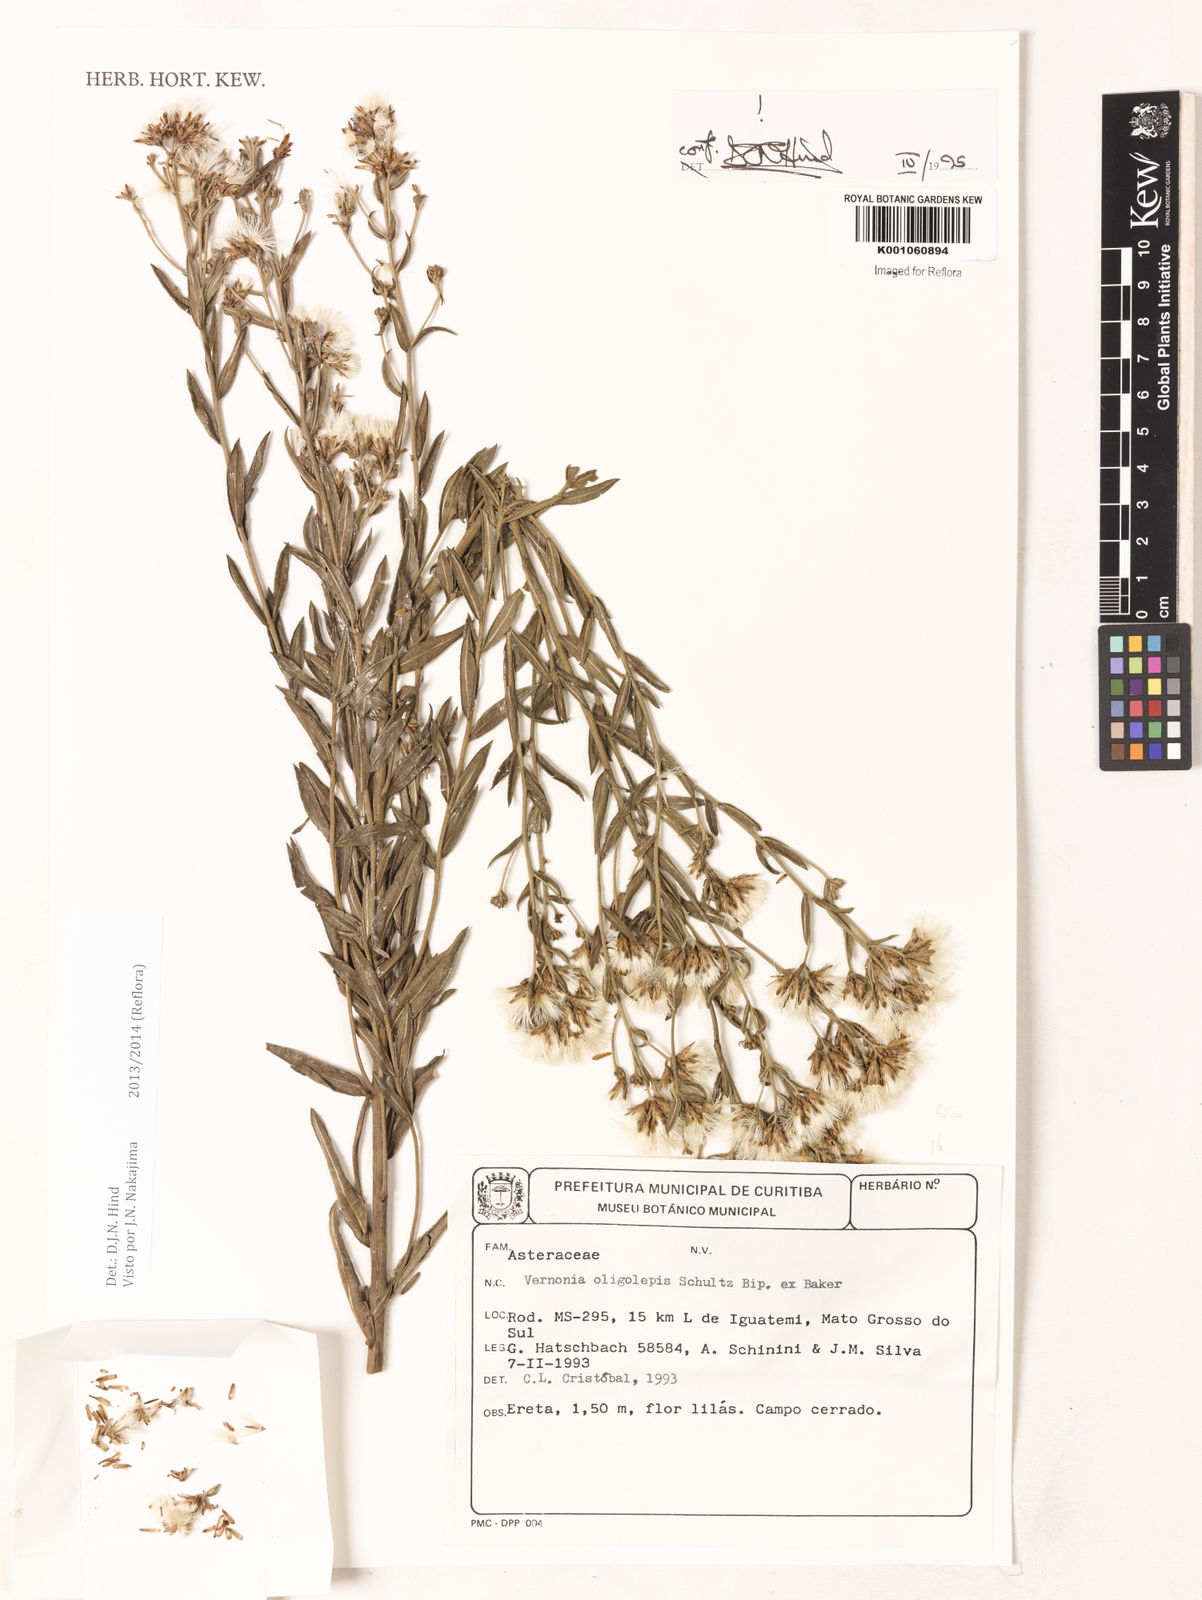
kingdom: Plantae
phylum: Tracheophyta
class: Magnoliopsida
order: Asterales
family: Asteraceae
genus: Vernonanthura
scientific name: Vernonanthura oligolepis
